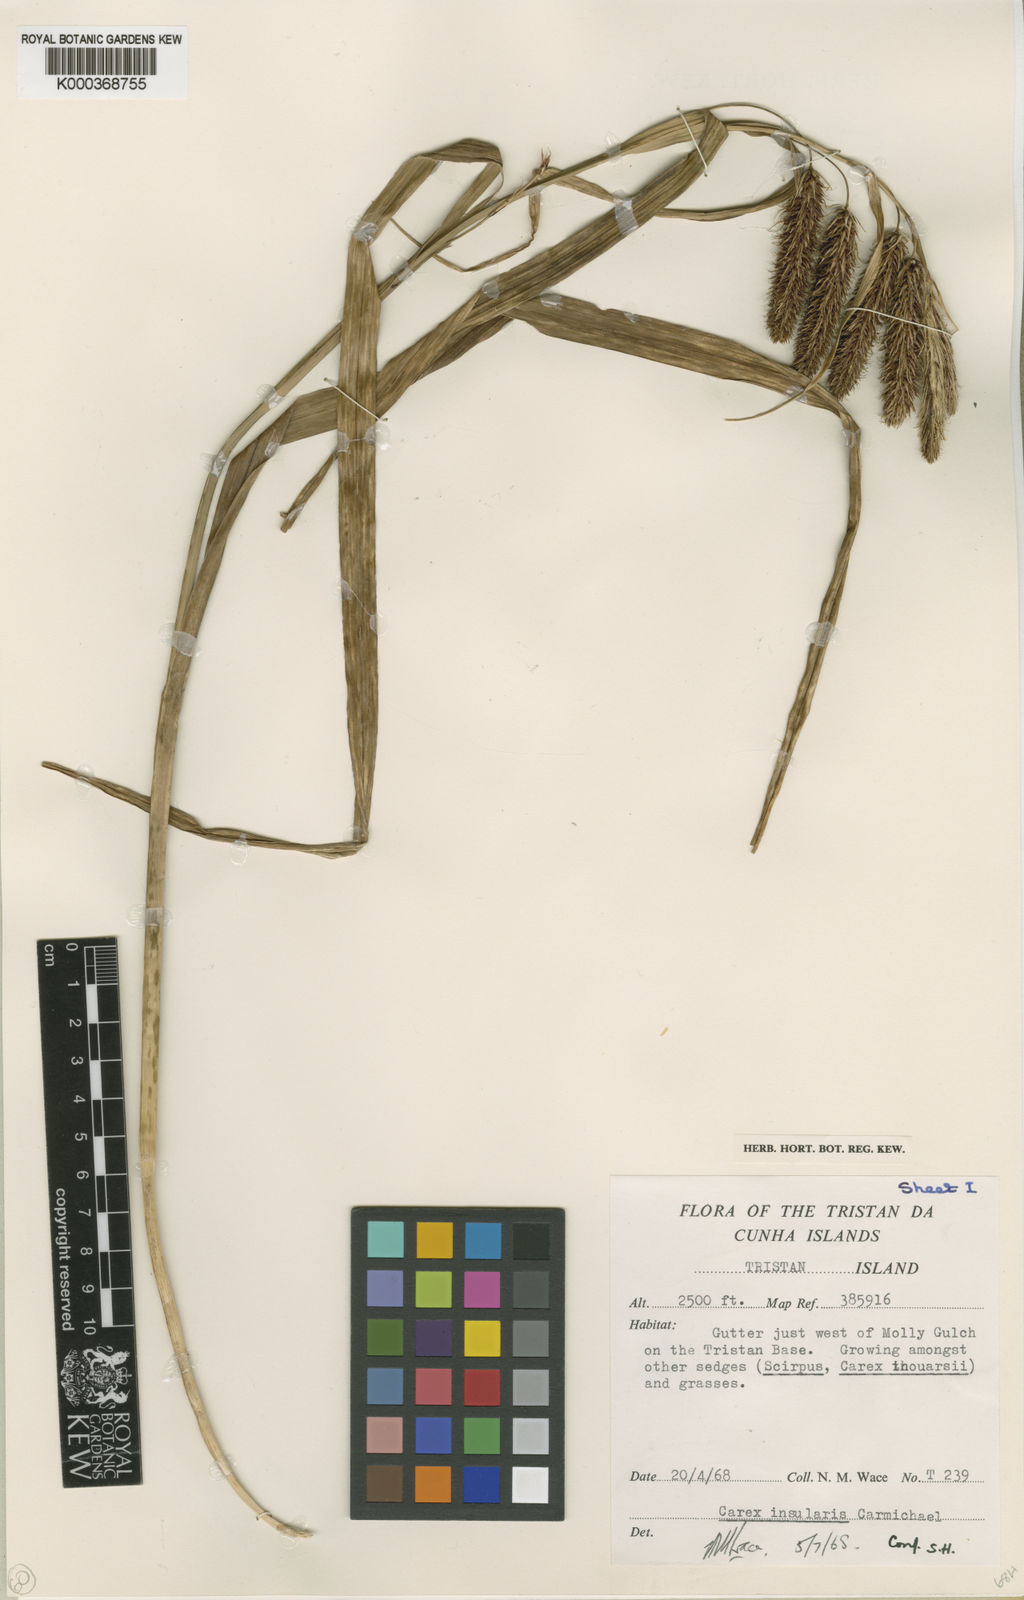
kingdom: Plantae
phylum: Tracheophyta
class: Liliopsida
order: Poales
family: Cyperaceae
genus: Carex
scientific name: Carex insularis
